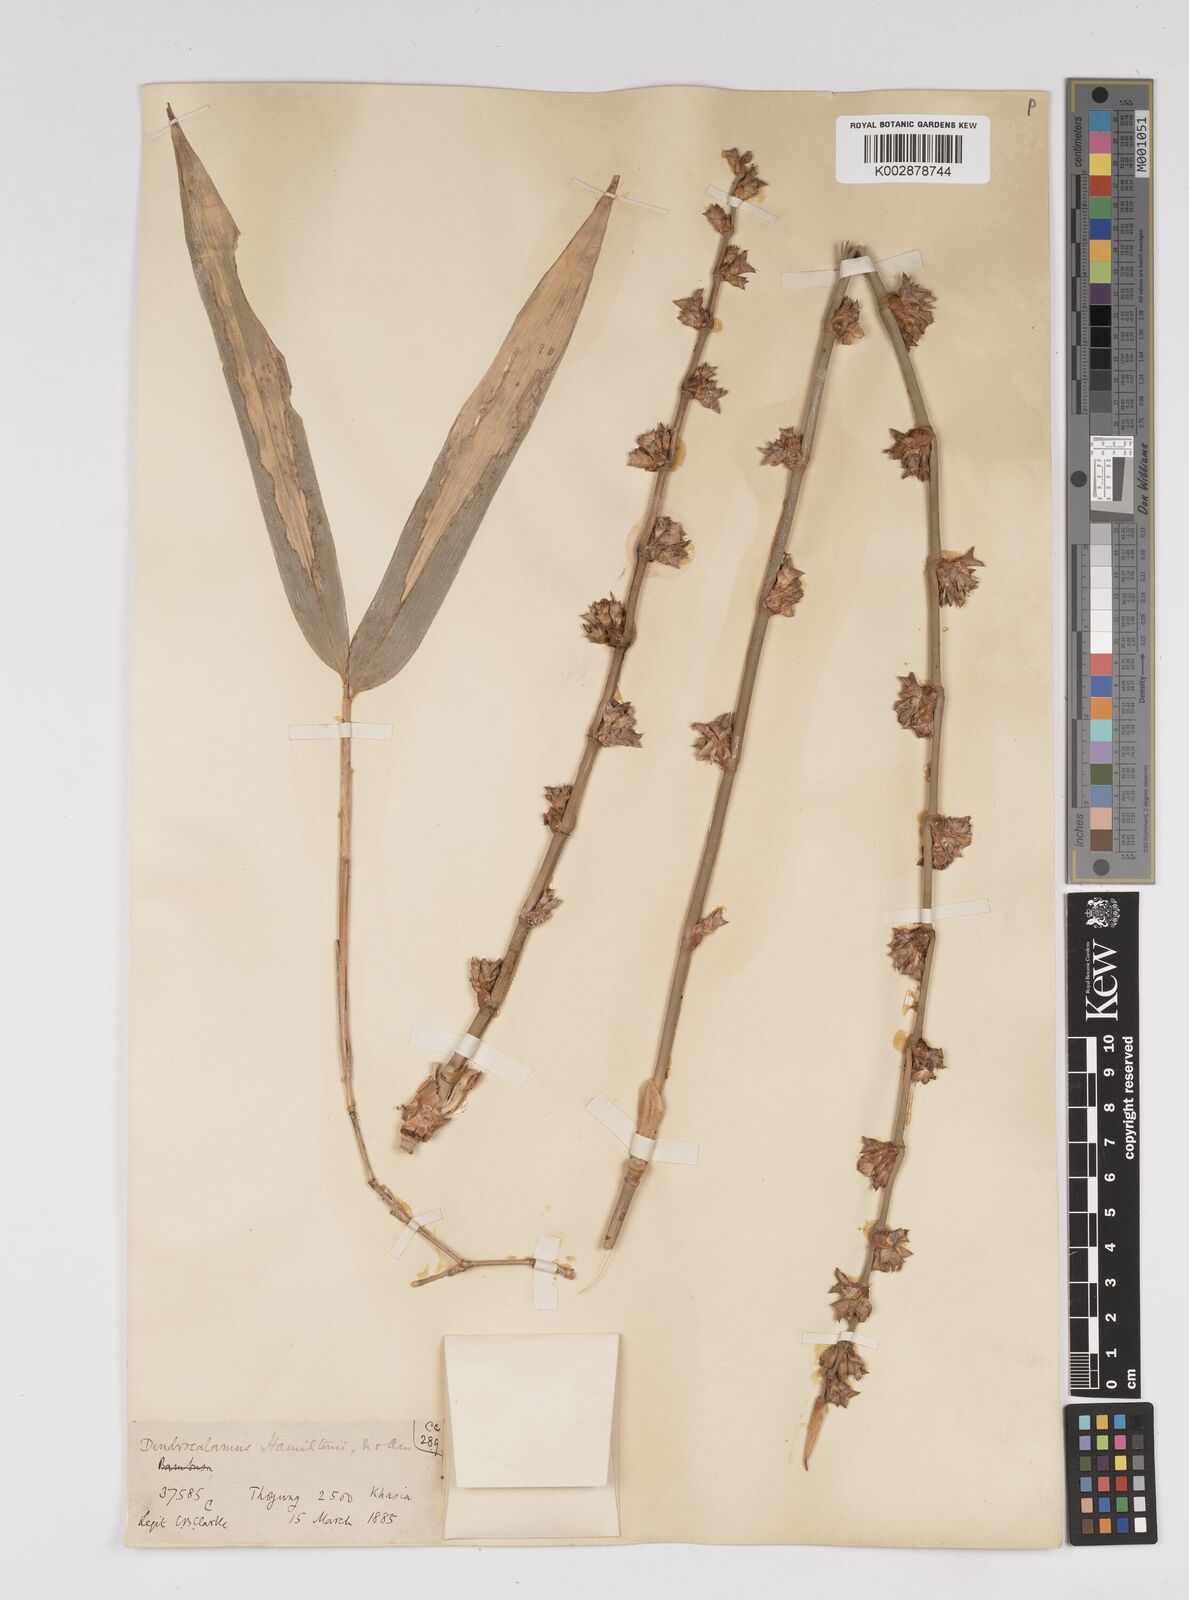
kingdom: Plantae
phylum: Tracheophyta
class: Liliopsida
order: Poales
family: Poaceae
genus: Dendrocalamus
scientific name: Dendrocalamus hamiltonii
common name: Tama bamboo
